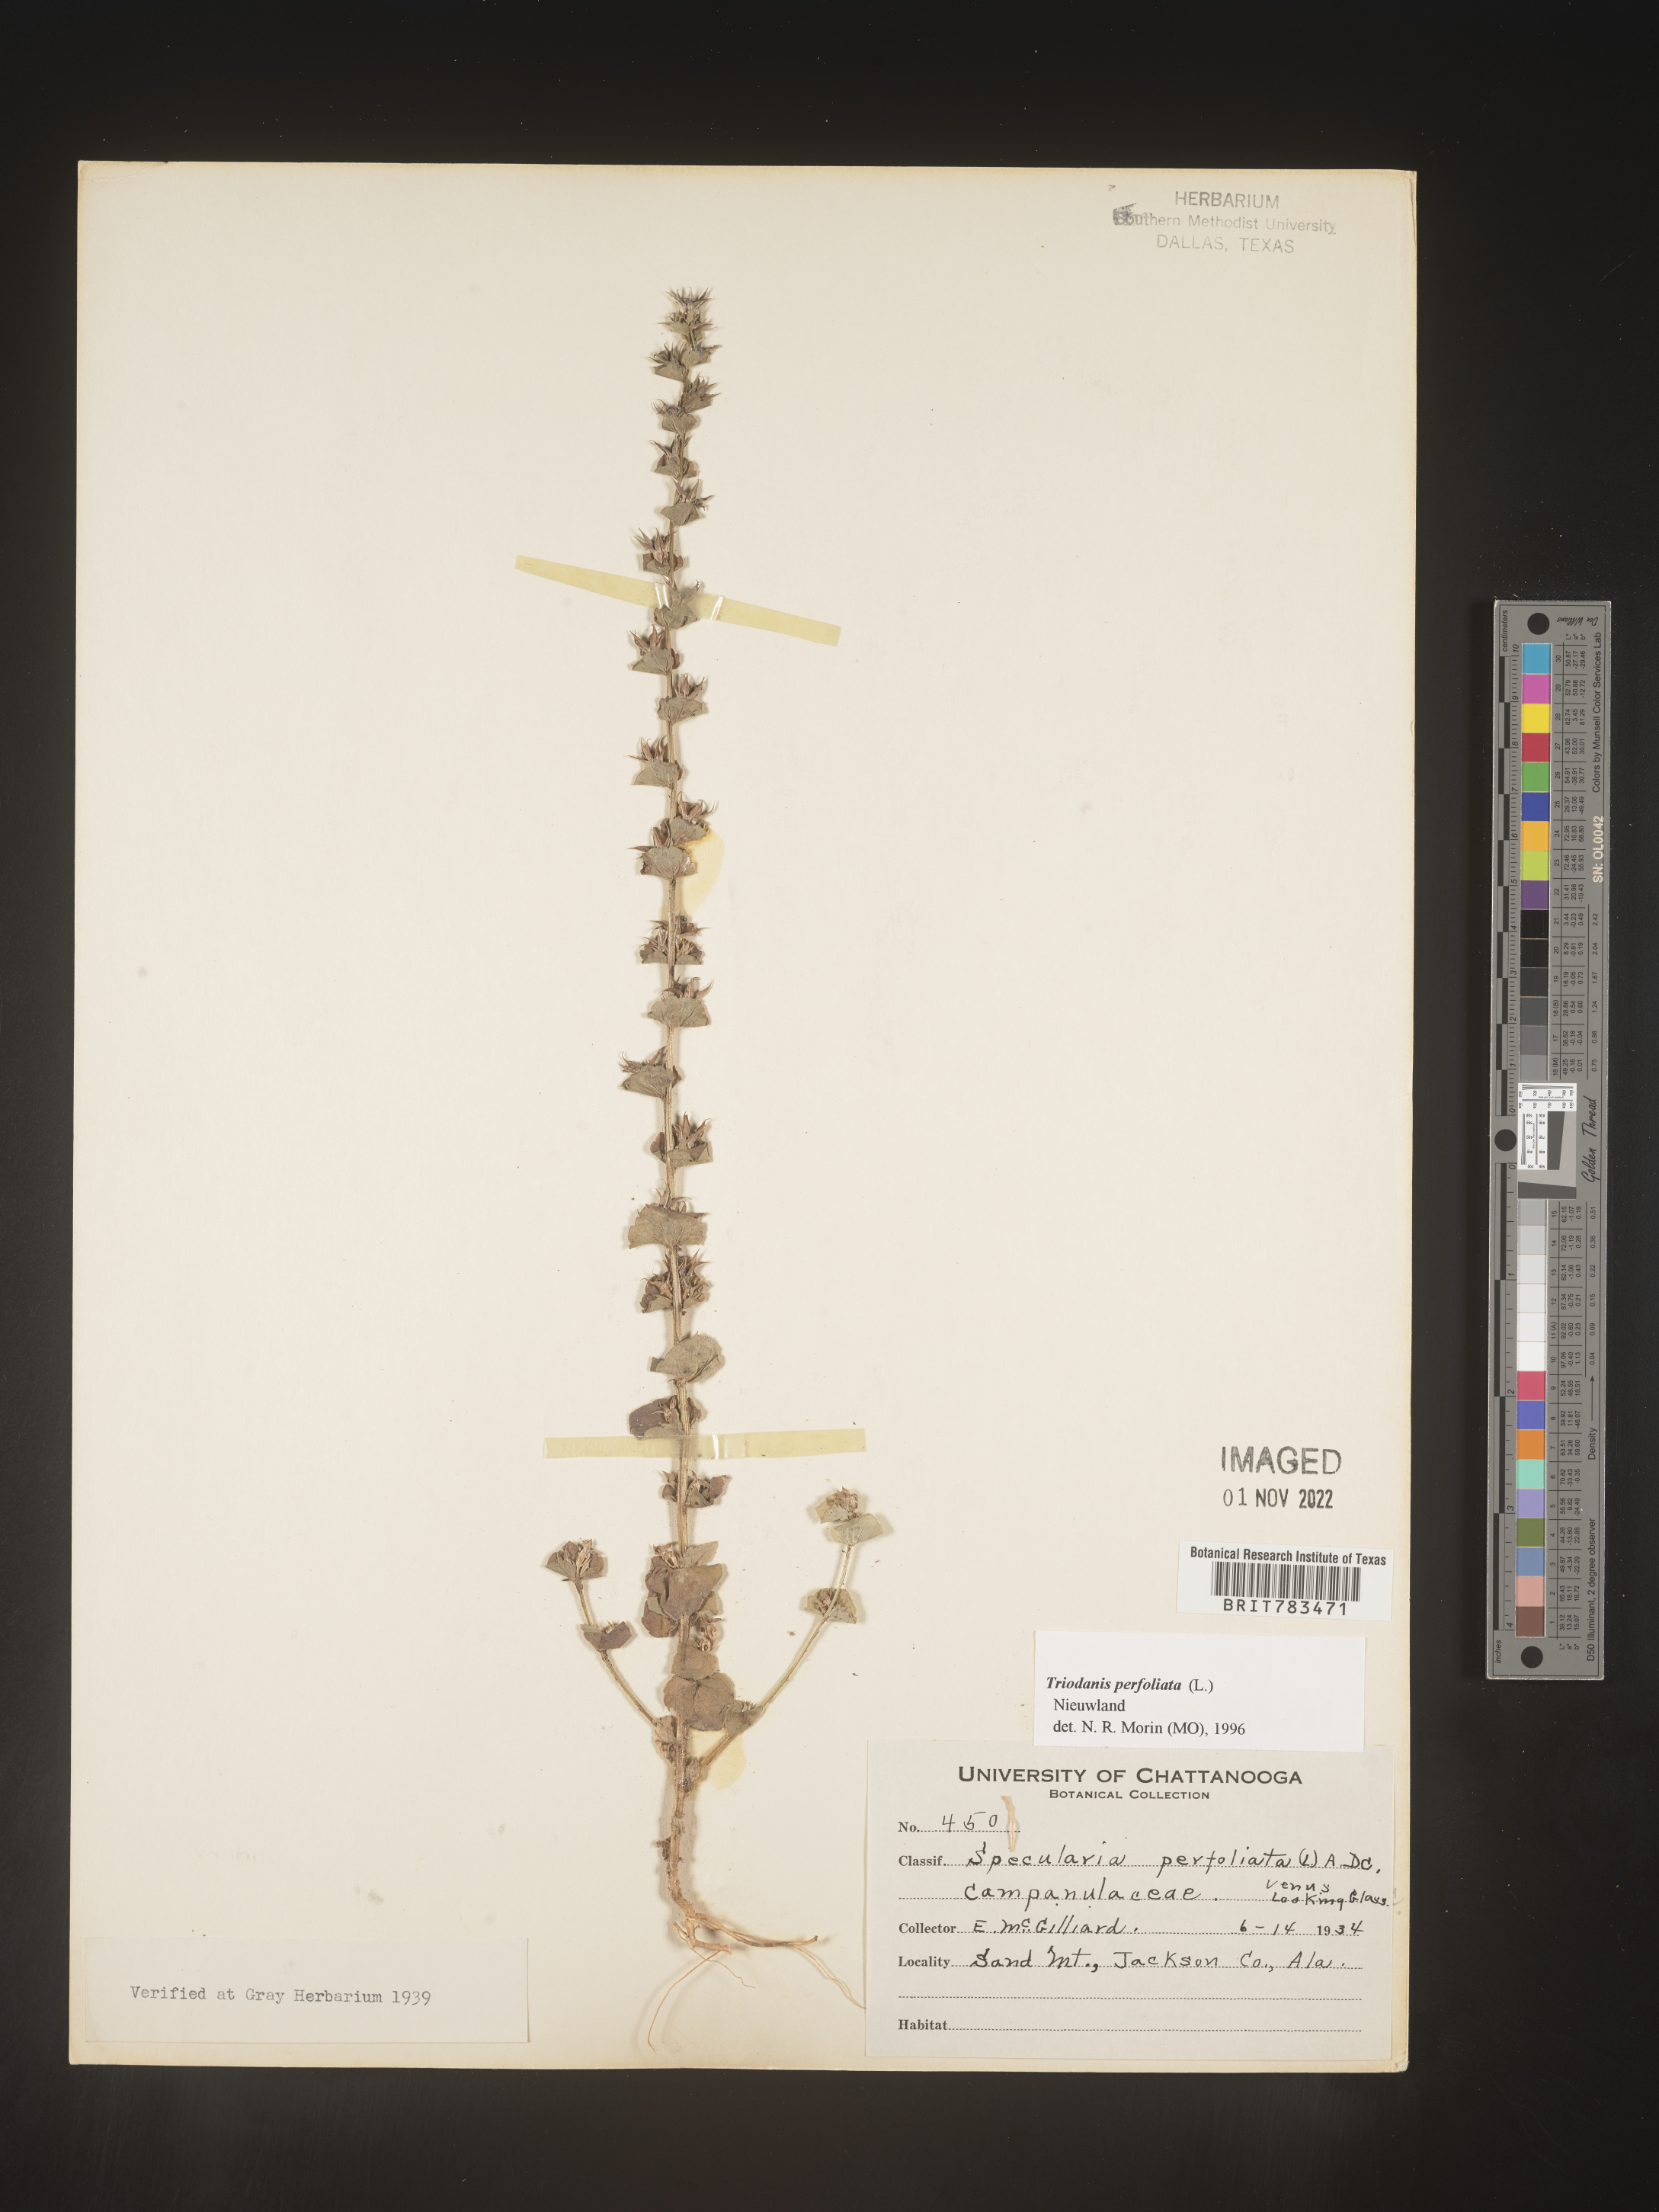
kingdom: Plantae
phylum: Tracheophyta
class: Magnoliopsida
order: Asterales
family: Campanulaceae
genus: Triodanis
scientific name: Triodanis perfoliata
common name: Clasping venus' looking-glass
